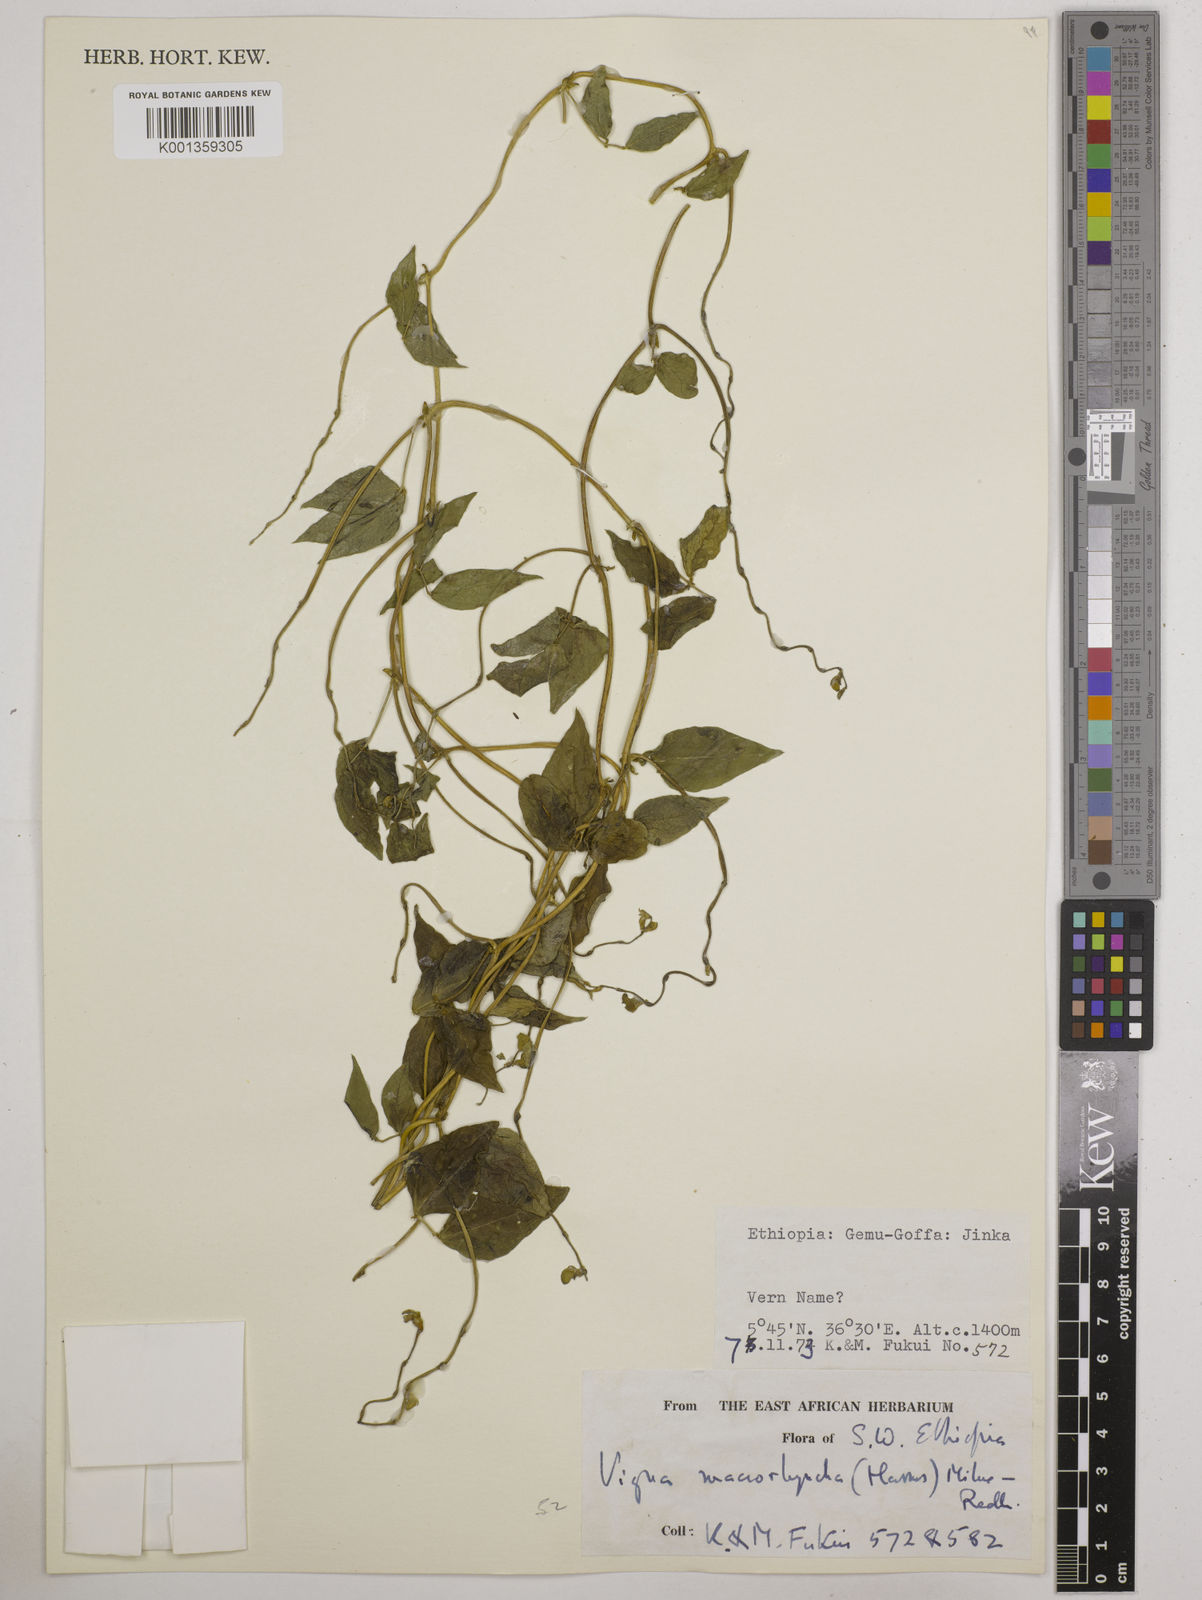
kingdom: Plantae
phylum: Tracheophyta
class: Magnoliopsida
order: Fabales
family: Fabaceae
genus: Wajira
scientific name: Wajira grahamiana
